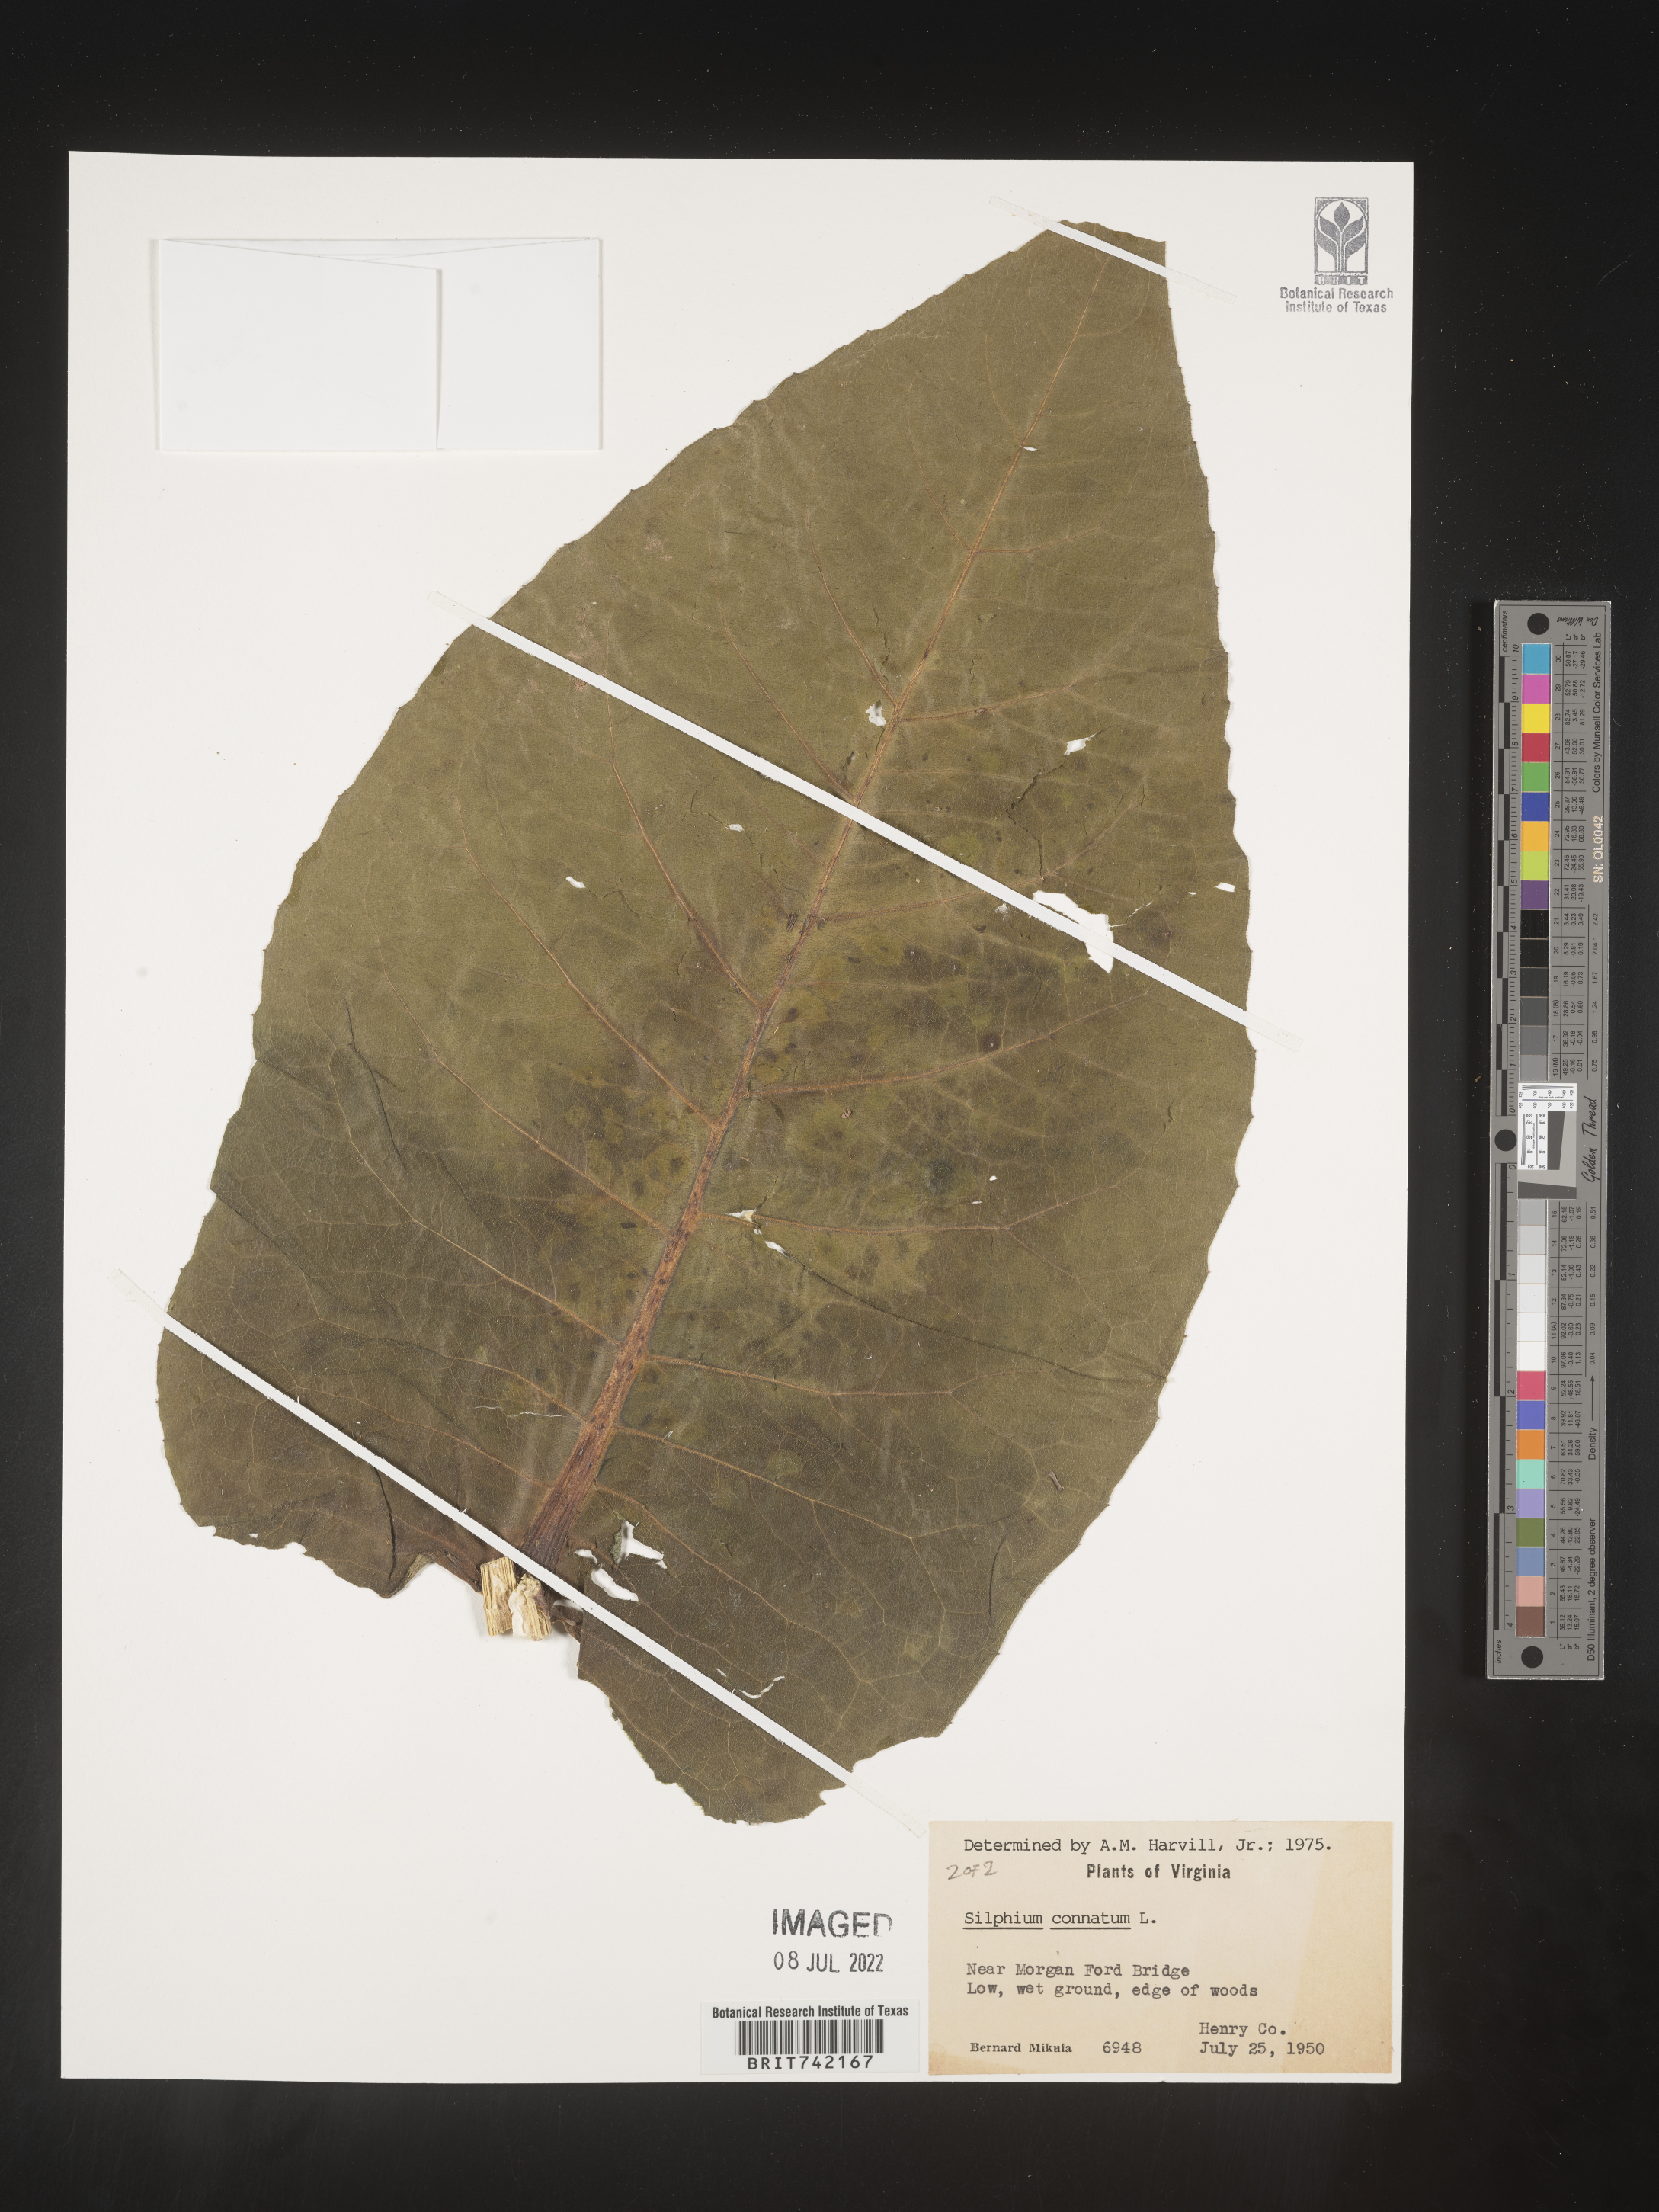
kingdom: Plantae
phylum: Tracheophyta
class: Magnoliopsida
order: Asterales
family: Asteraceae
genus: Silphium
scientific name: Silphium perfoliatum
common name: Cup-plant
